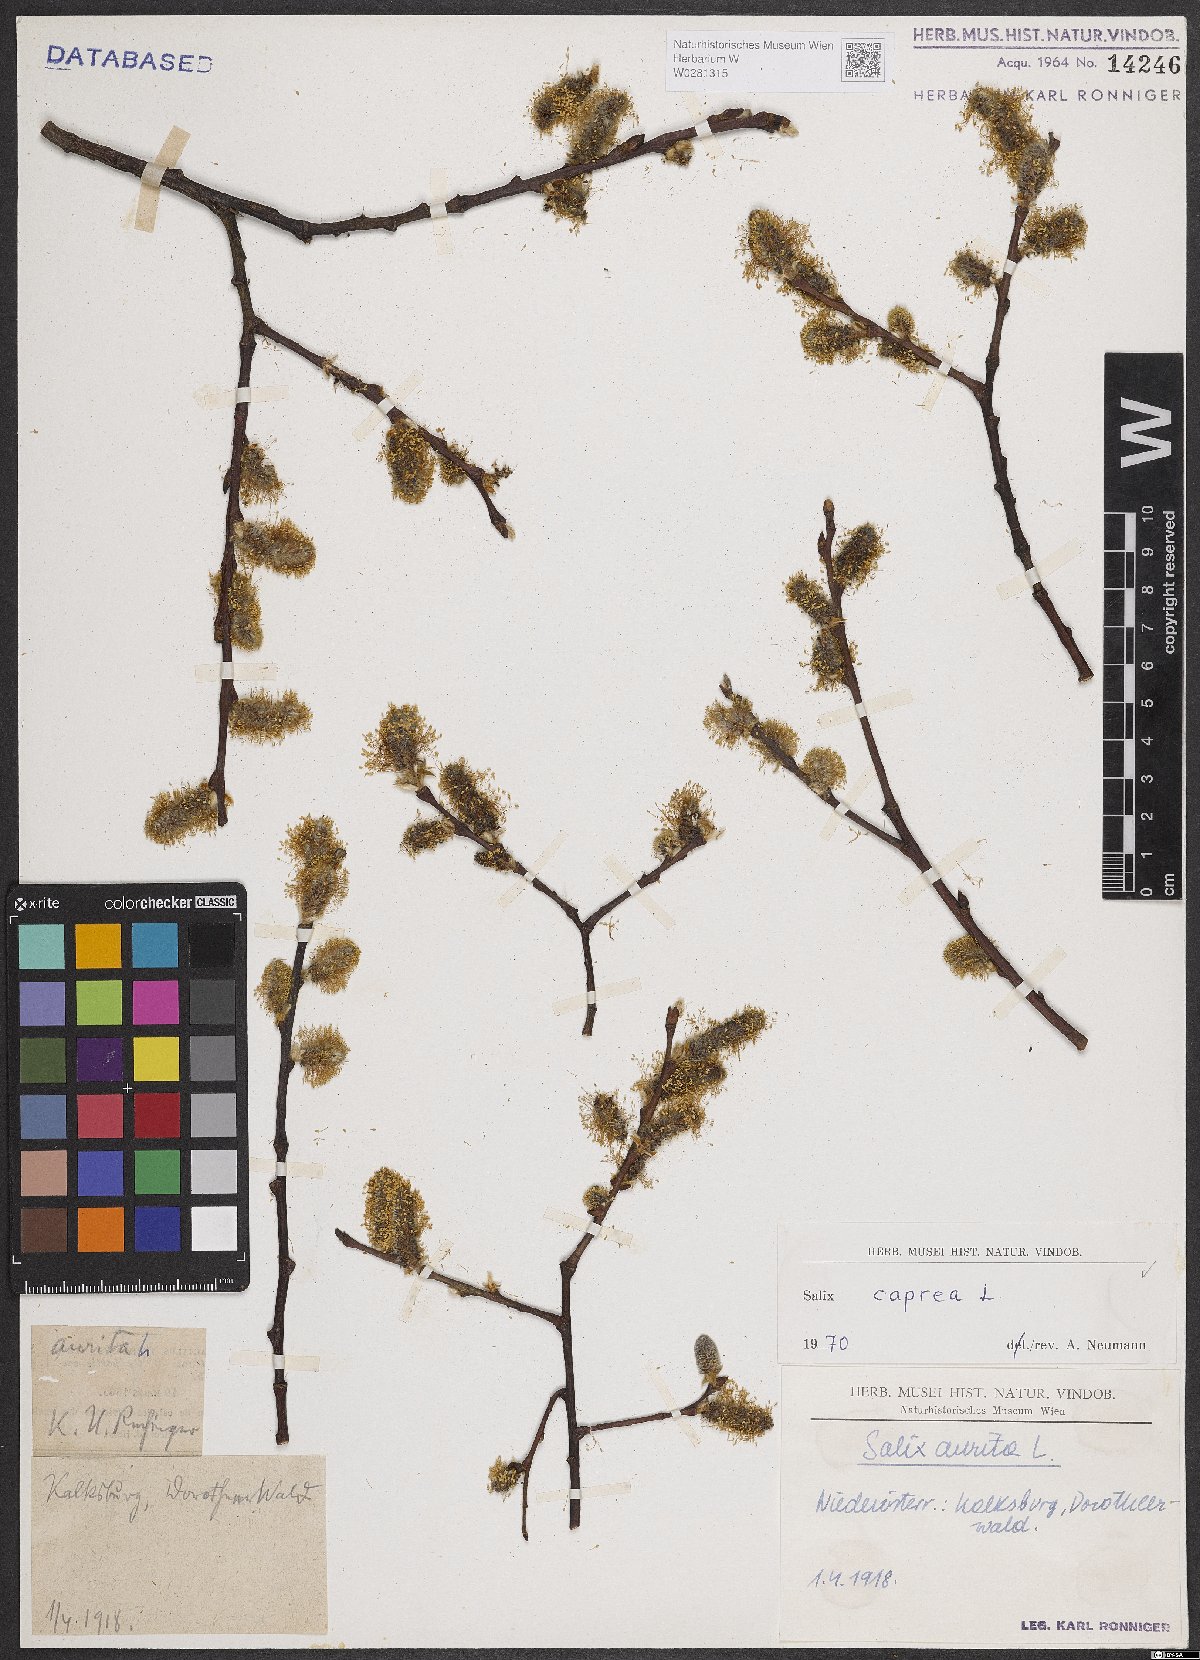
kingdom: Plantae
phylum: Tracheophyta
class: Magnoliopsida
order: Malpighiales
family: Salicaceae
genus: Salix
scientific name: Salix caprea
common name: Goat willow
